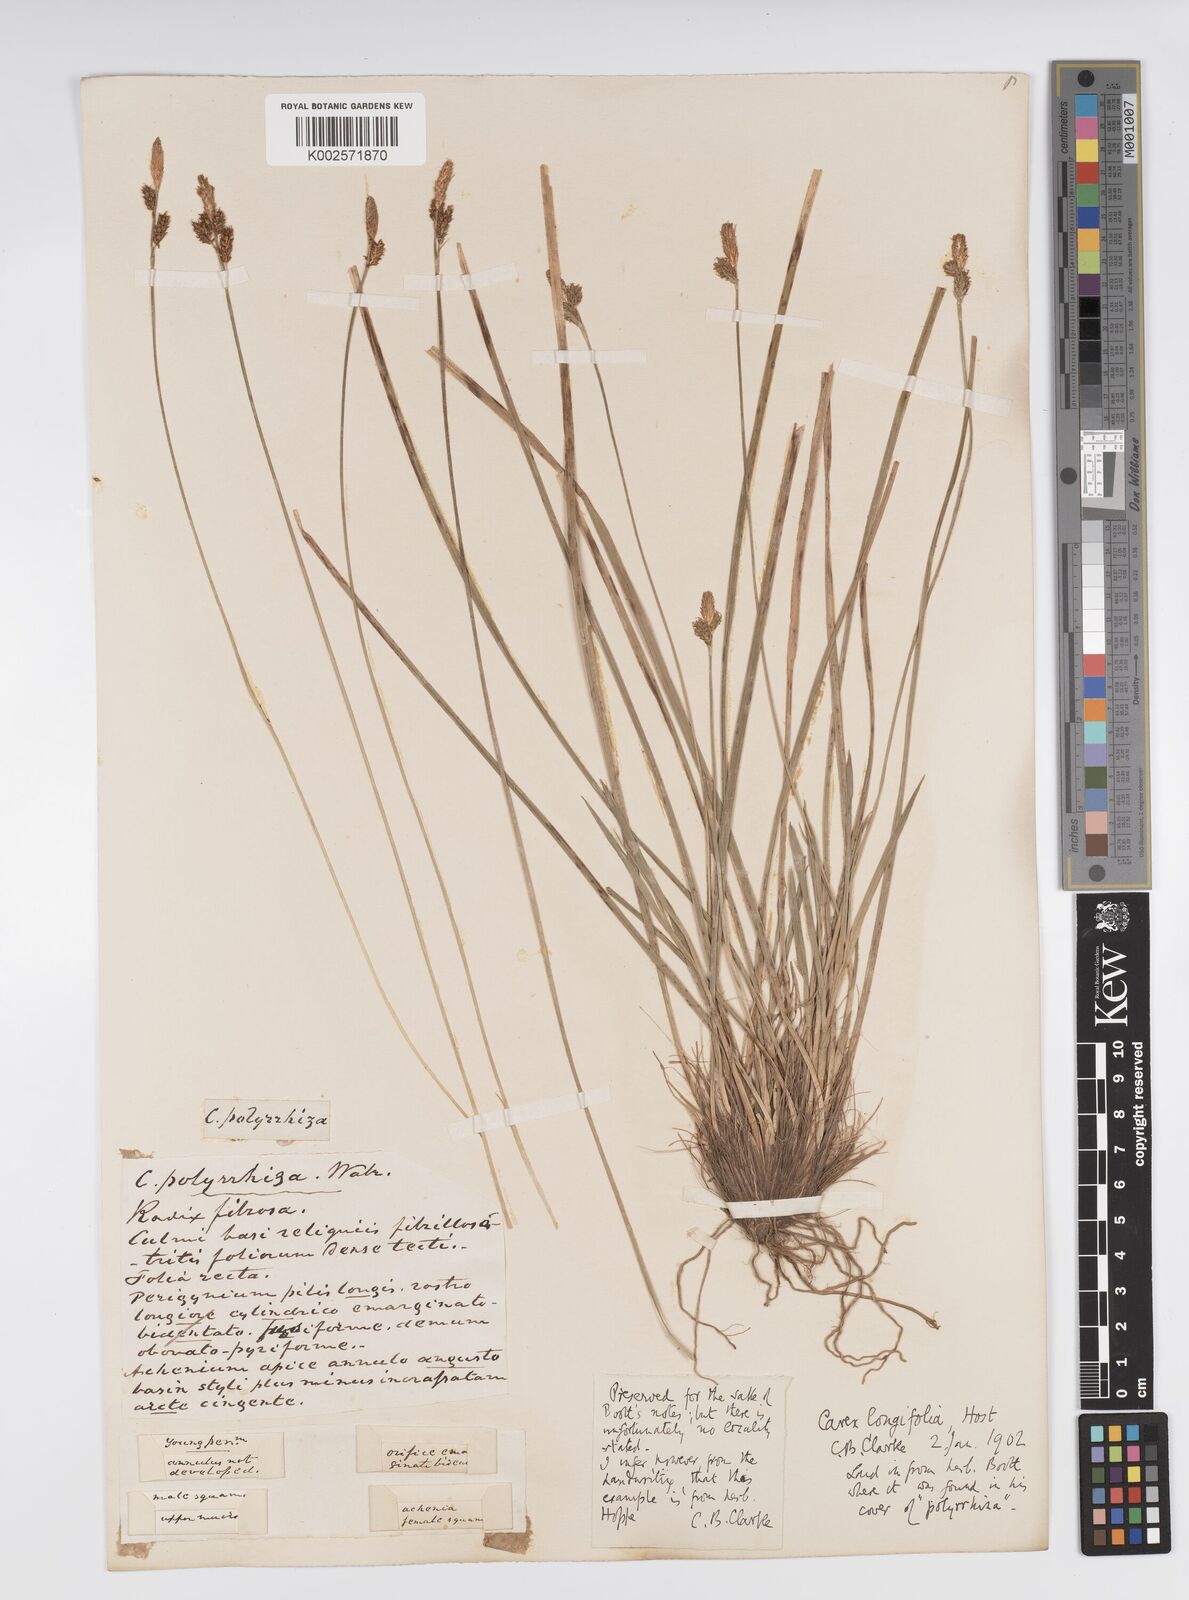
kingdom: Plantae
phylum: Tracheophyta
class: Liliopsida
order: Poales
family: Cyperaceae
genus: Carex
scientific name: Carex umbrosa
